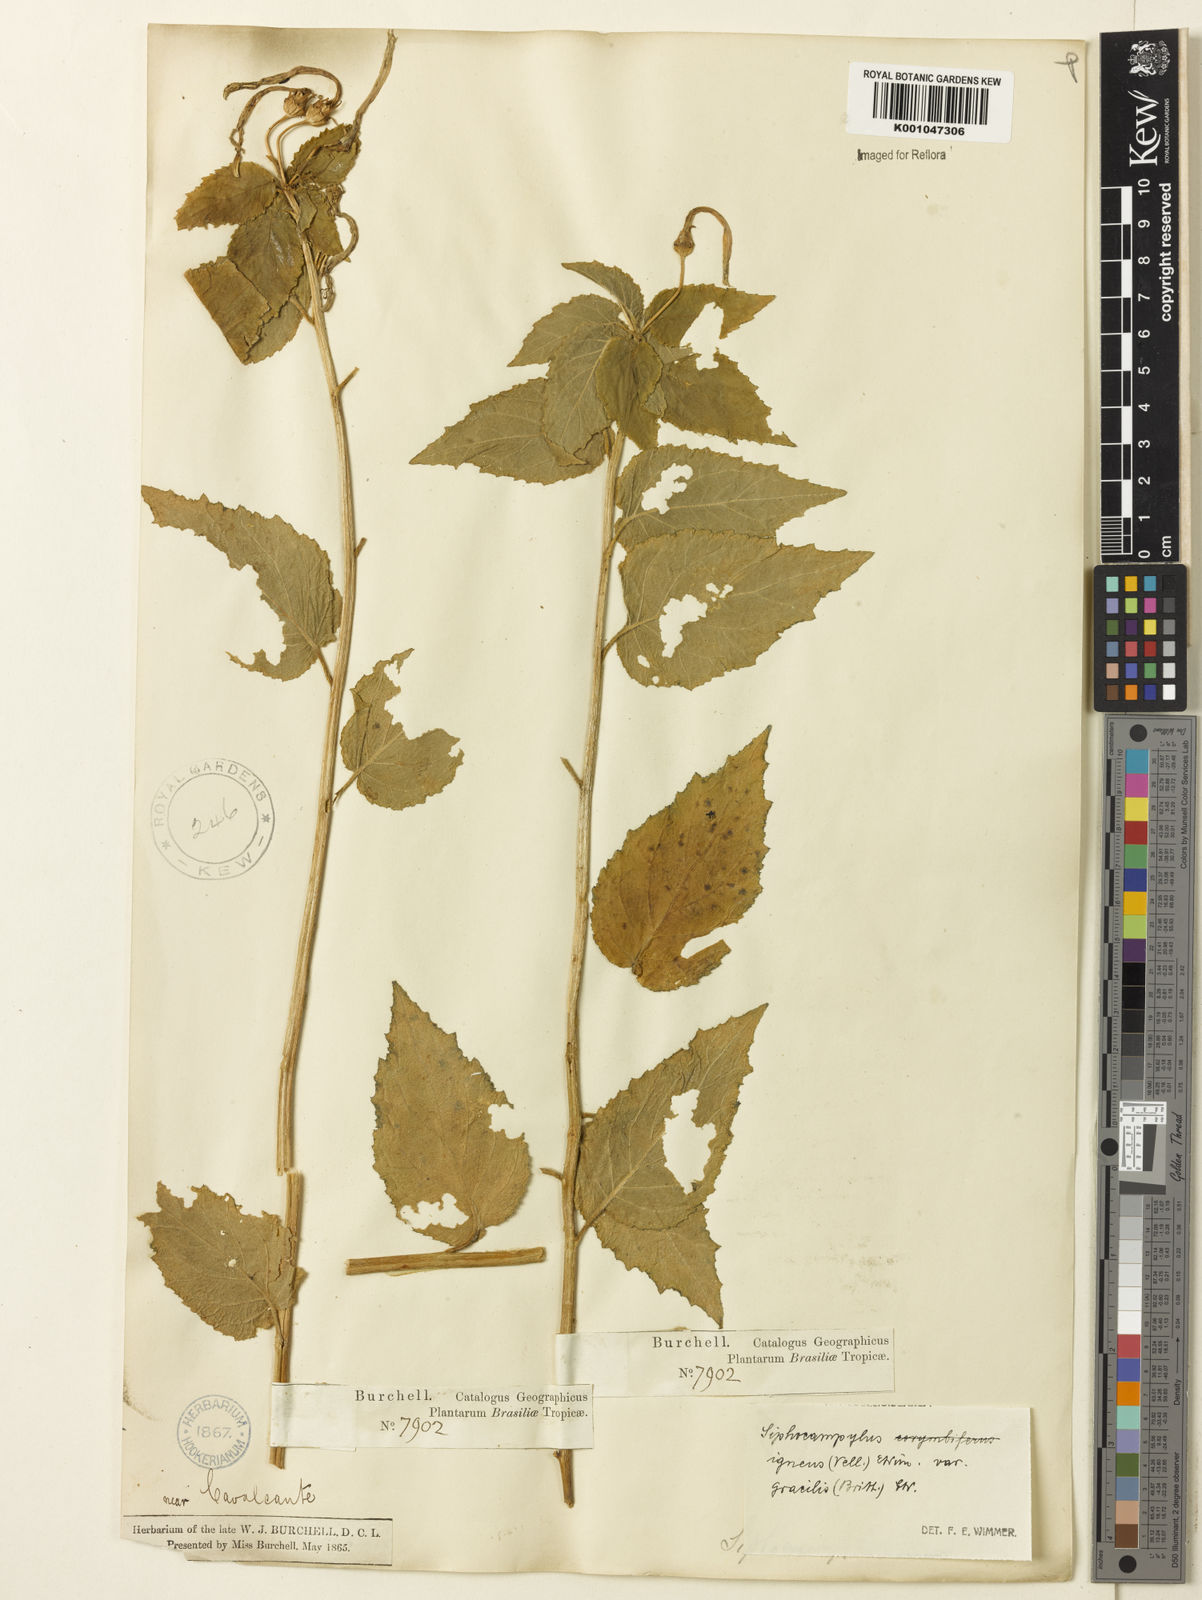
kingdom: Plantae
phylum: Tracheophyta
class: Magnoliopsida
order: Asterales
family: Campanulaceae
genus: Siphocampylus
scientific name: Siphocampylus corymbifer
